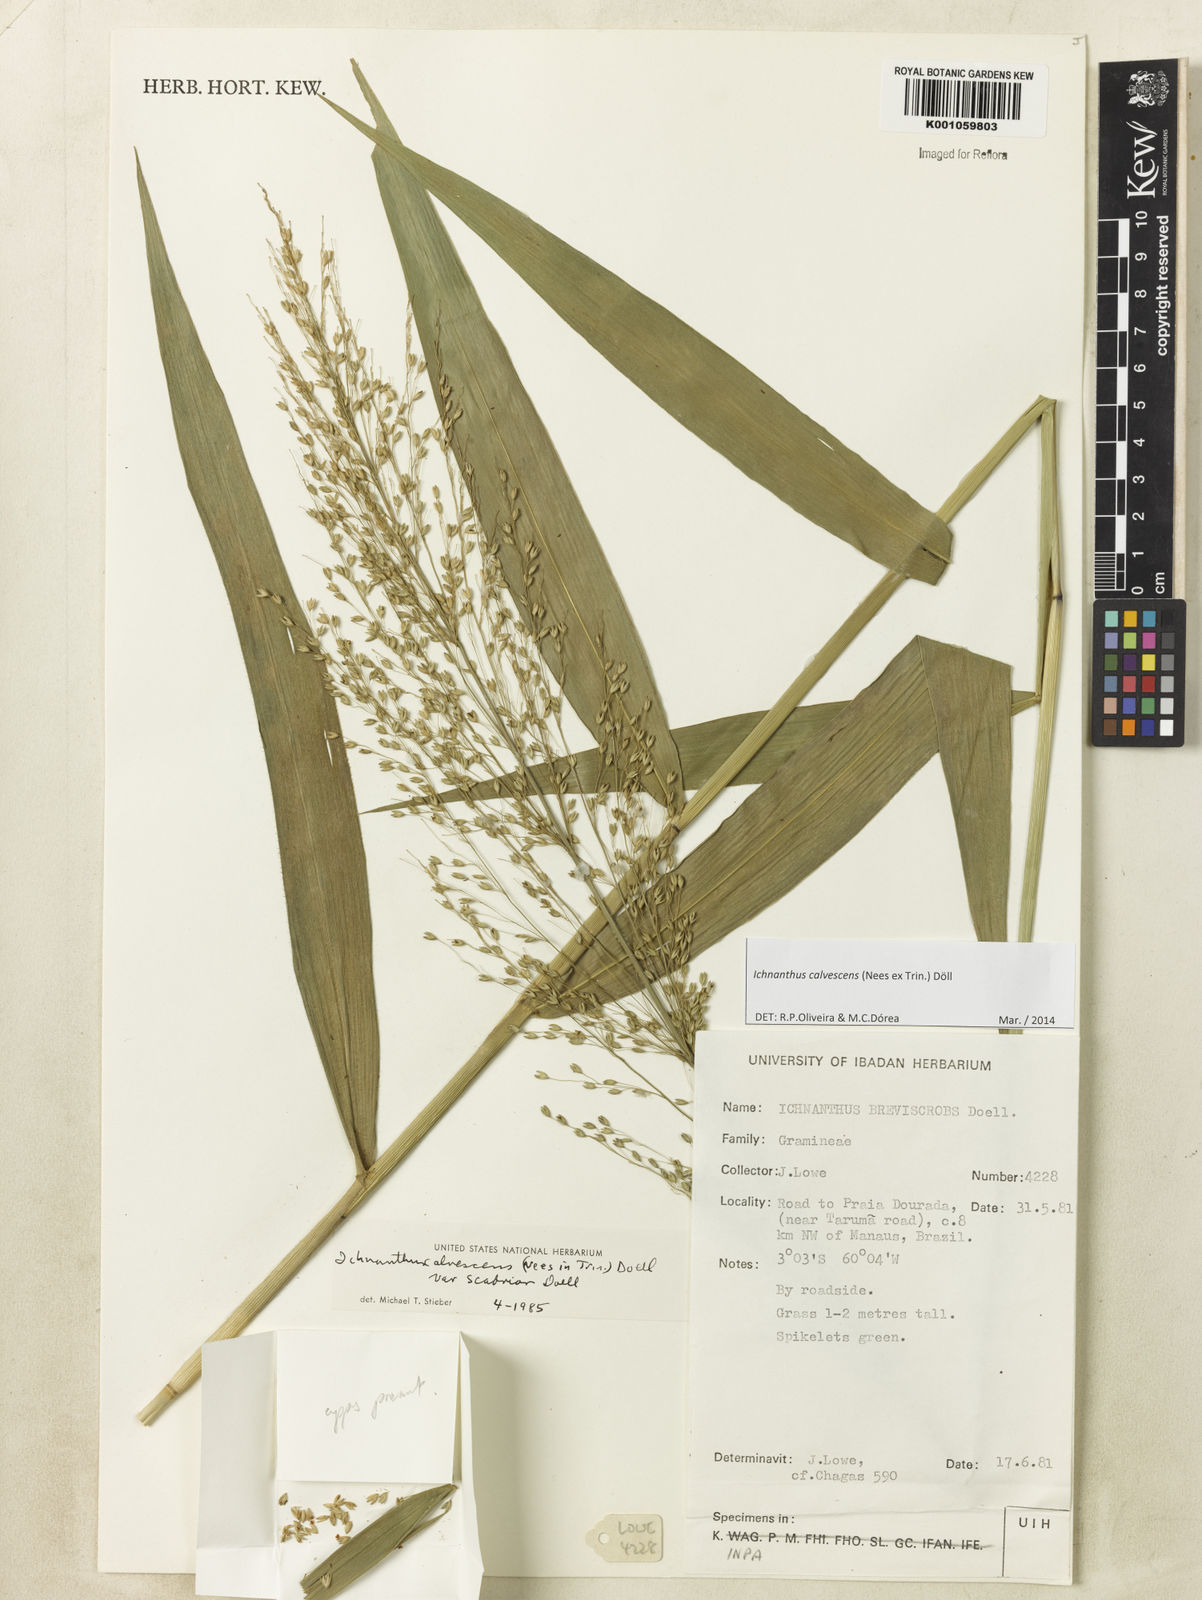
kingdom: Plantae
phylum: Tracheophyta
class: Liliopsida
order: Poales
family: Poaceae
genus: Ichnanthus
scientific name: Ichnanthus
